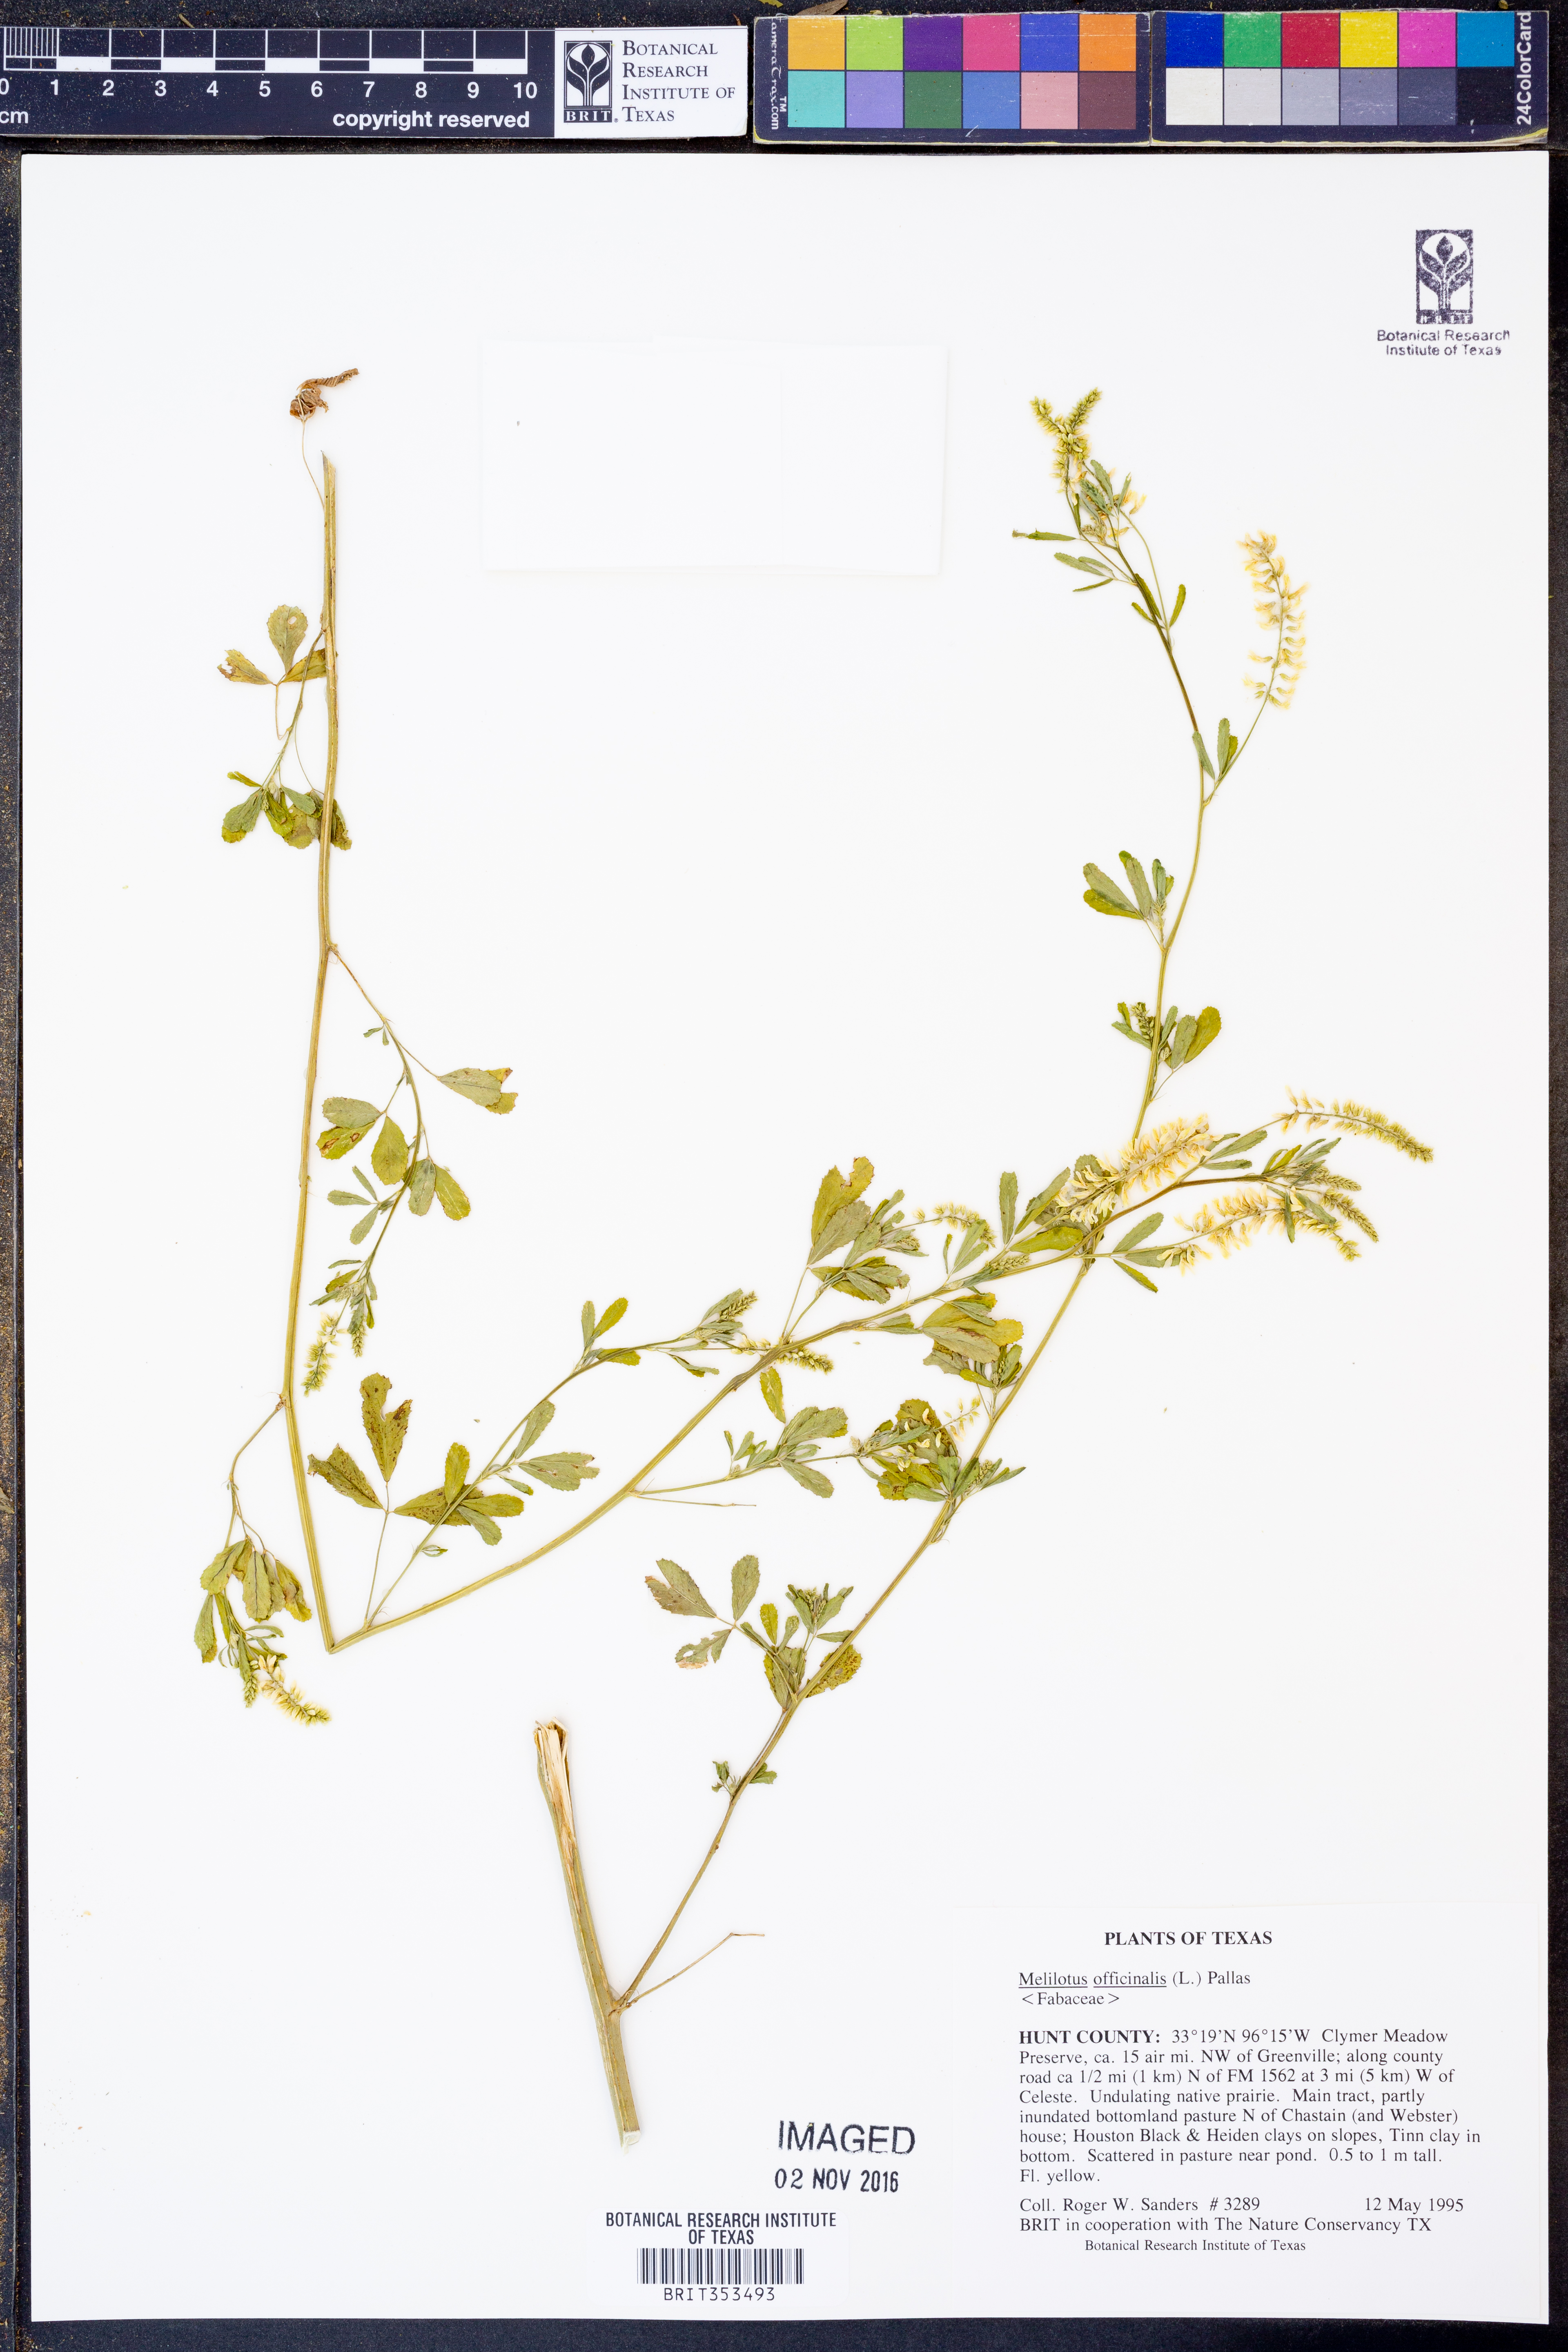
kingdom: Plantae
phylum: Tracheophyta
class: Magnoliopsida
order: Fabales
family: Fabaceae
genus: Melilotus
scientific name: Melilotus officinalis
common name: Sweetclover
